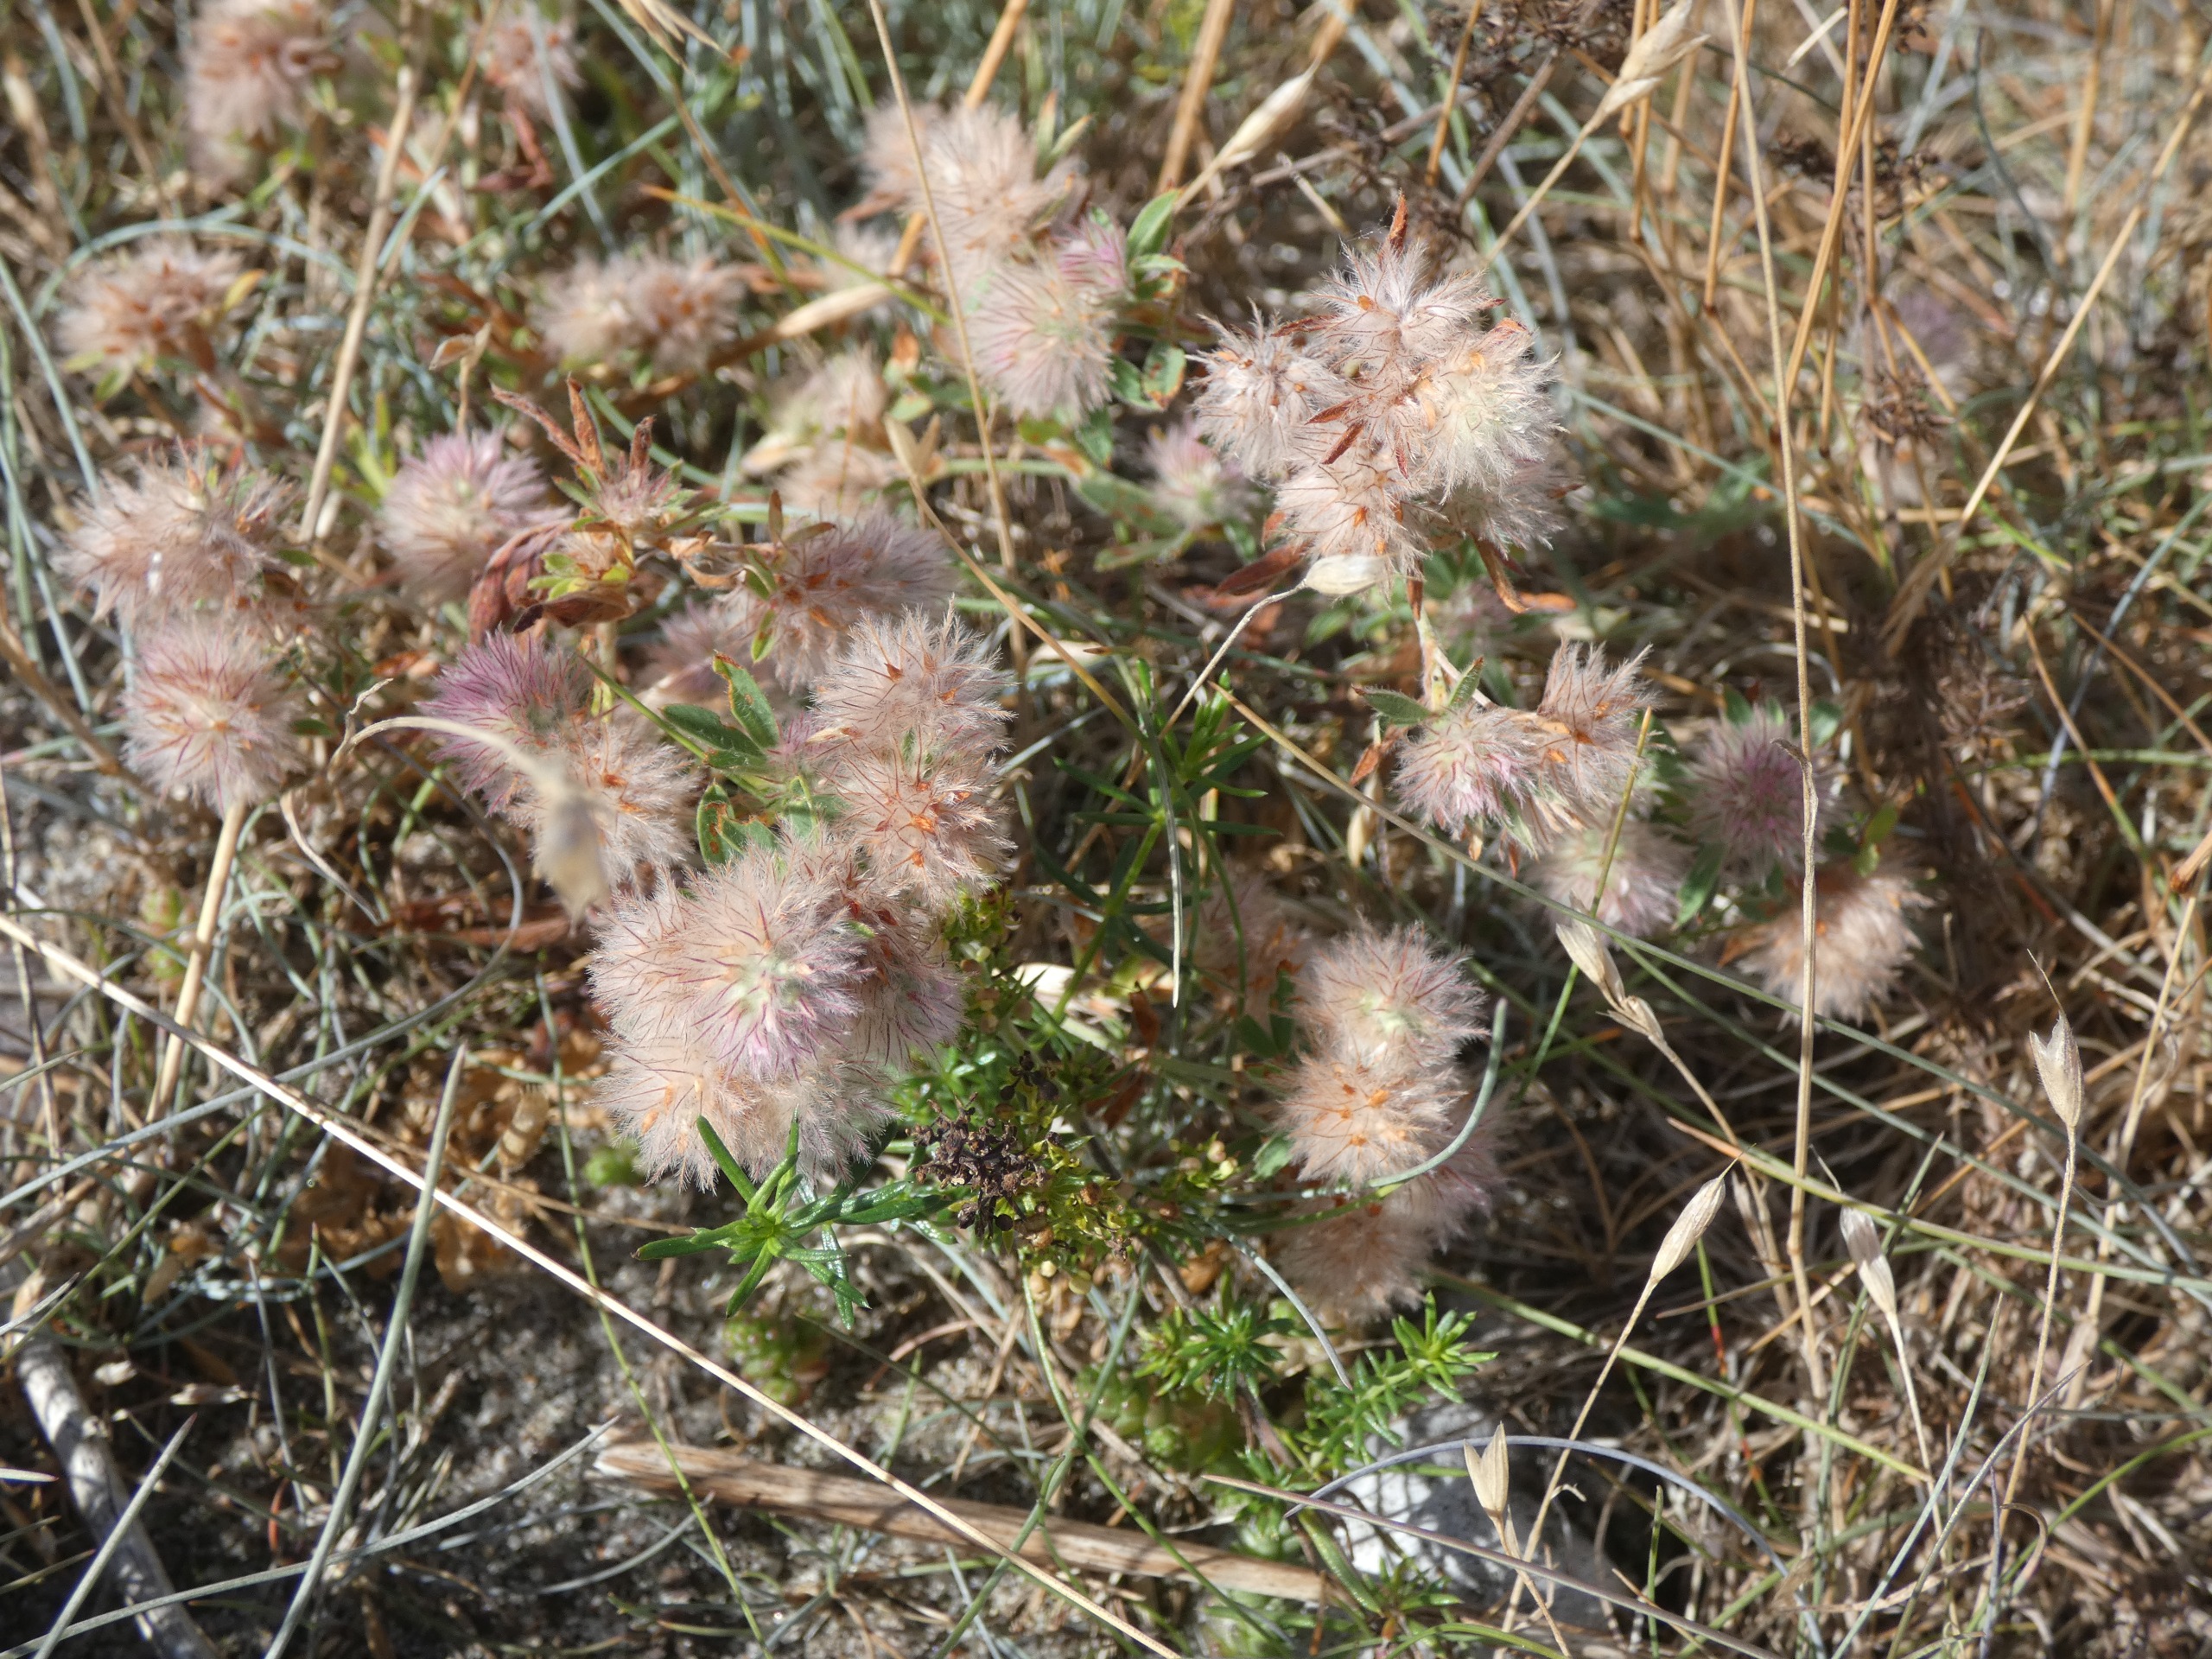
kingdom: Plantae
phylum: Tracheophyta
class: Magnoliopsida
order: Fabales
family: Fabaceae
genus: Trifolium
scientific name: Trifolium arvense
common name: Hare-kløver
